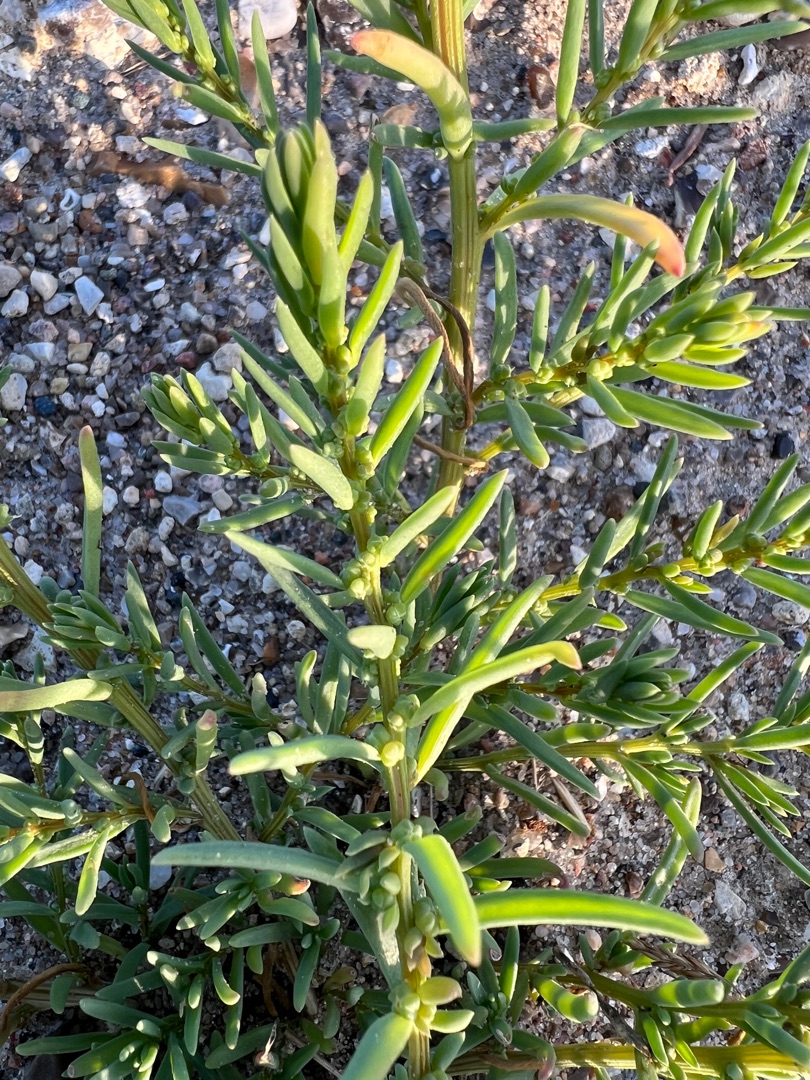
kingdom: Plantae
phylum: Tracheophyta
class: Magnoliopsida
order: Caryophyllales
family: Amaranthaceae
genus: Suaeda
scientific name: Suaeda maritima
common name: Strandgåsefod
